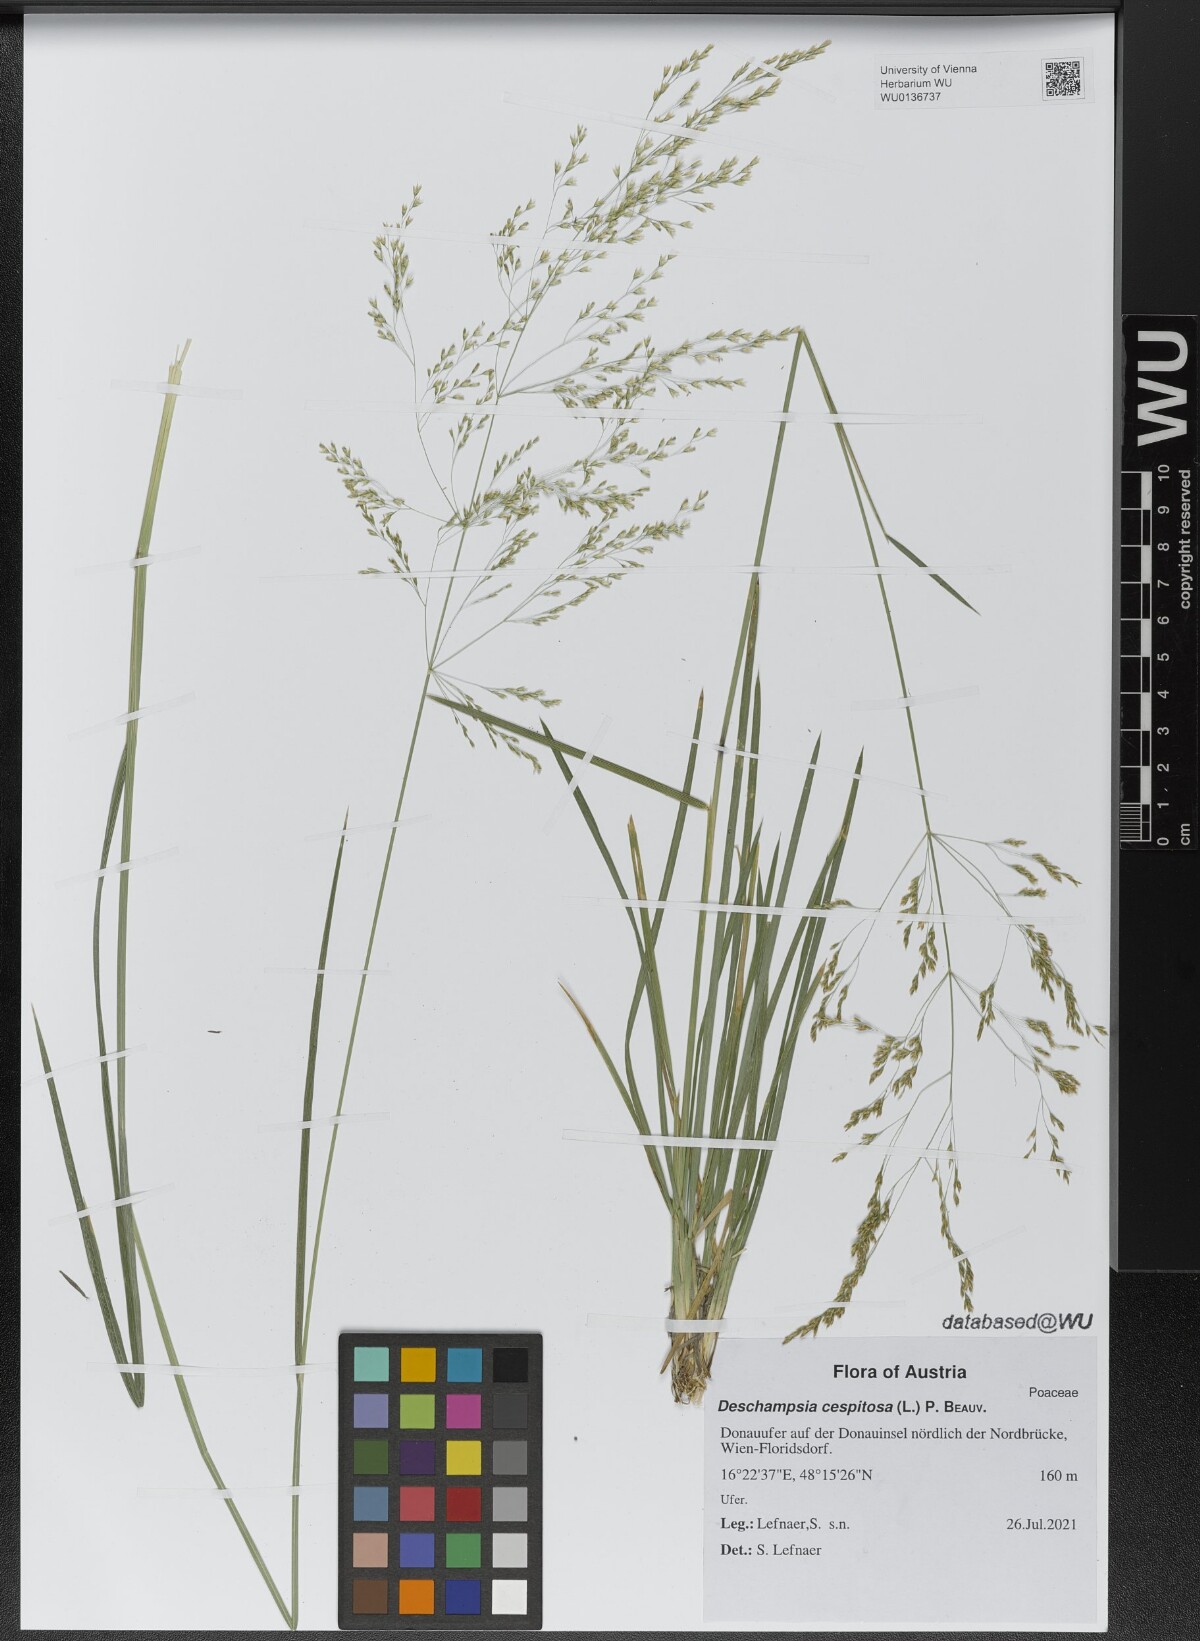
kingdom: Plantae
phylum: Tracheophyta
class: Liliopsida
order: Poales
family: Poaceae
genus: Deschampsia
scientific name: Deschampsia cespitosa
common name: Tufted hair-grass
